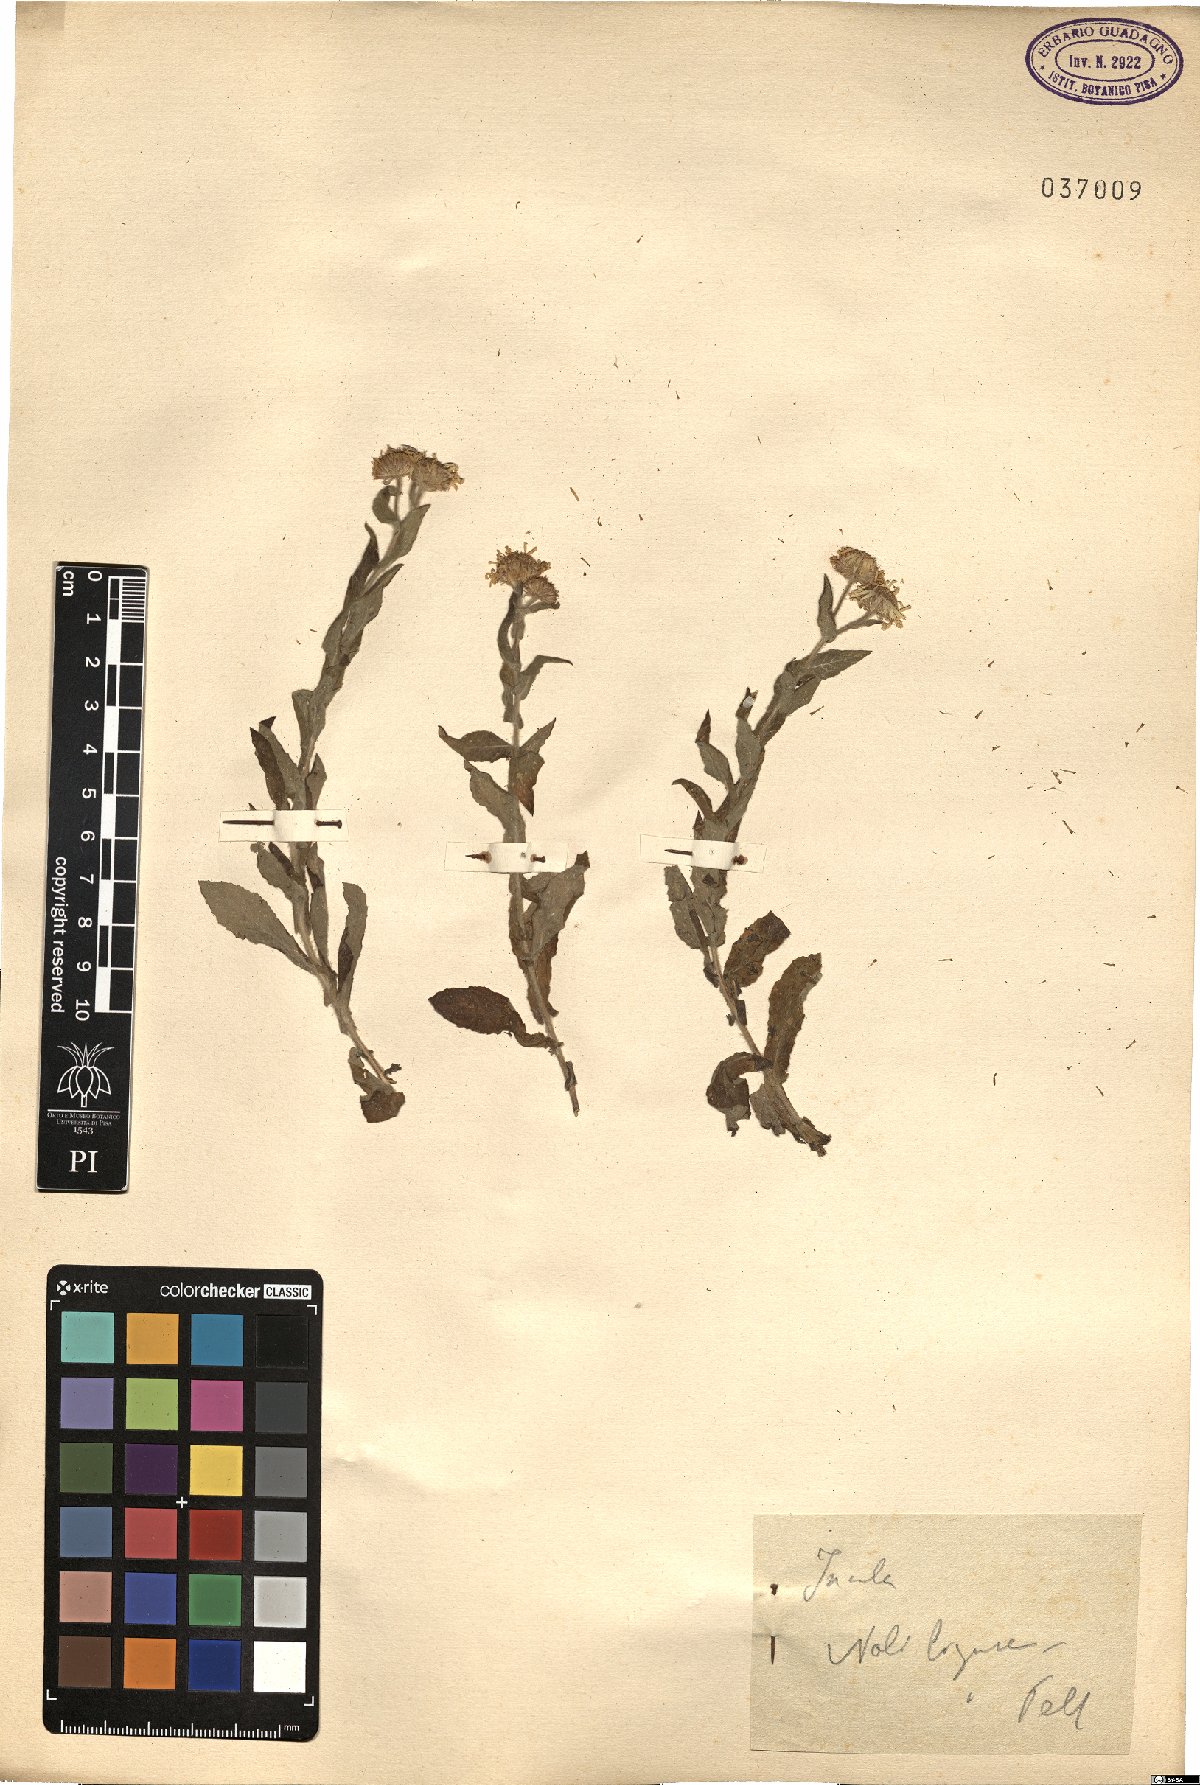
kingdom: Plantae
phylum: Tracheophyta
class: Magnoliopsida
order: Asterales
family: Asteraceae
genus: Inula
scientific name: Inula
